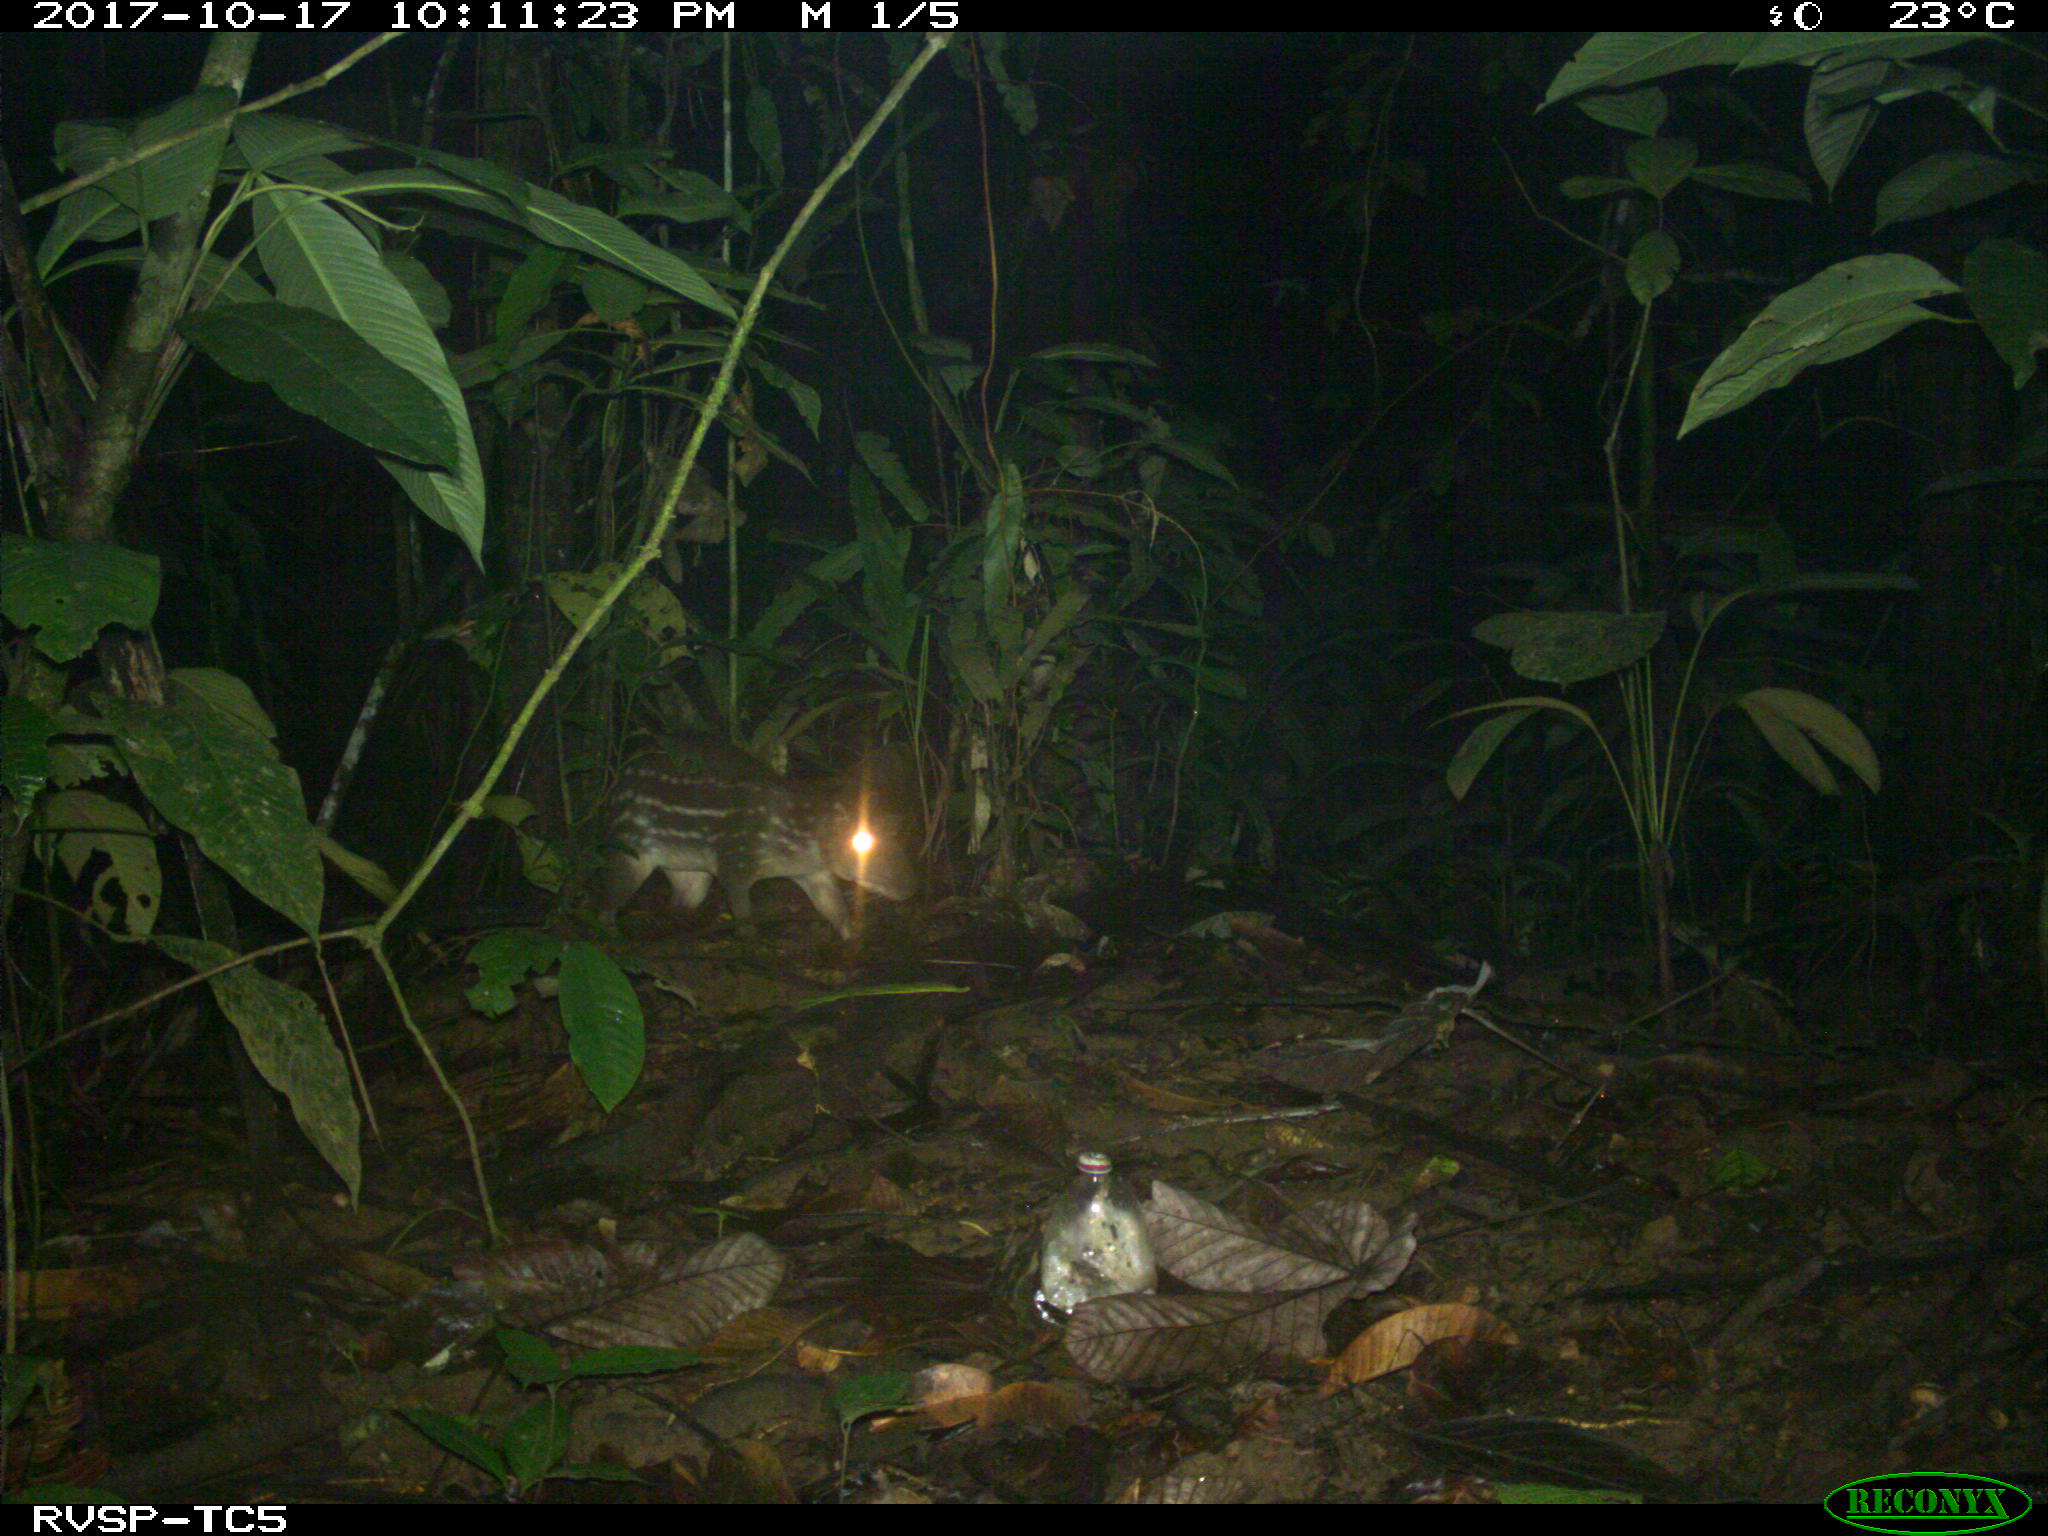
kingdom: Animalia
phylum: Chordata
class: Mammalia
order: Rodentia
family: Cuniculidae
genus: Cuniculus
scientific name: Cuniculus paca
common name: Lowland paca
